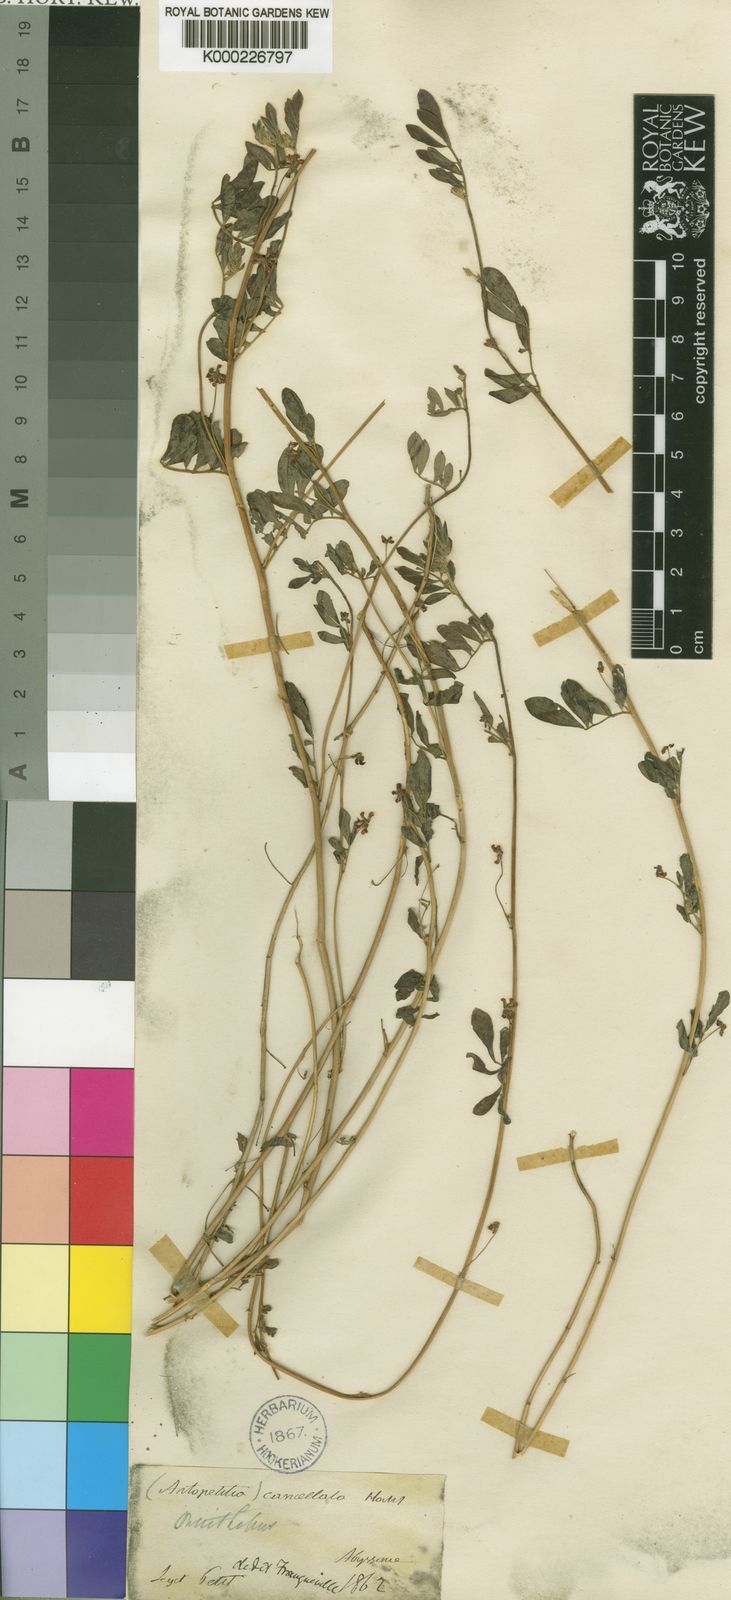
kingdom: Plantae
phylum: Tracheophyta
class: Magnoliopsida
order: Fabales
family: Fabaceae
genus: Dorycnopsis
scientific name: Dorycnopsis abyssinica
